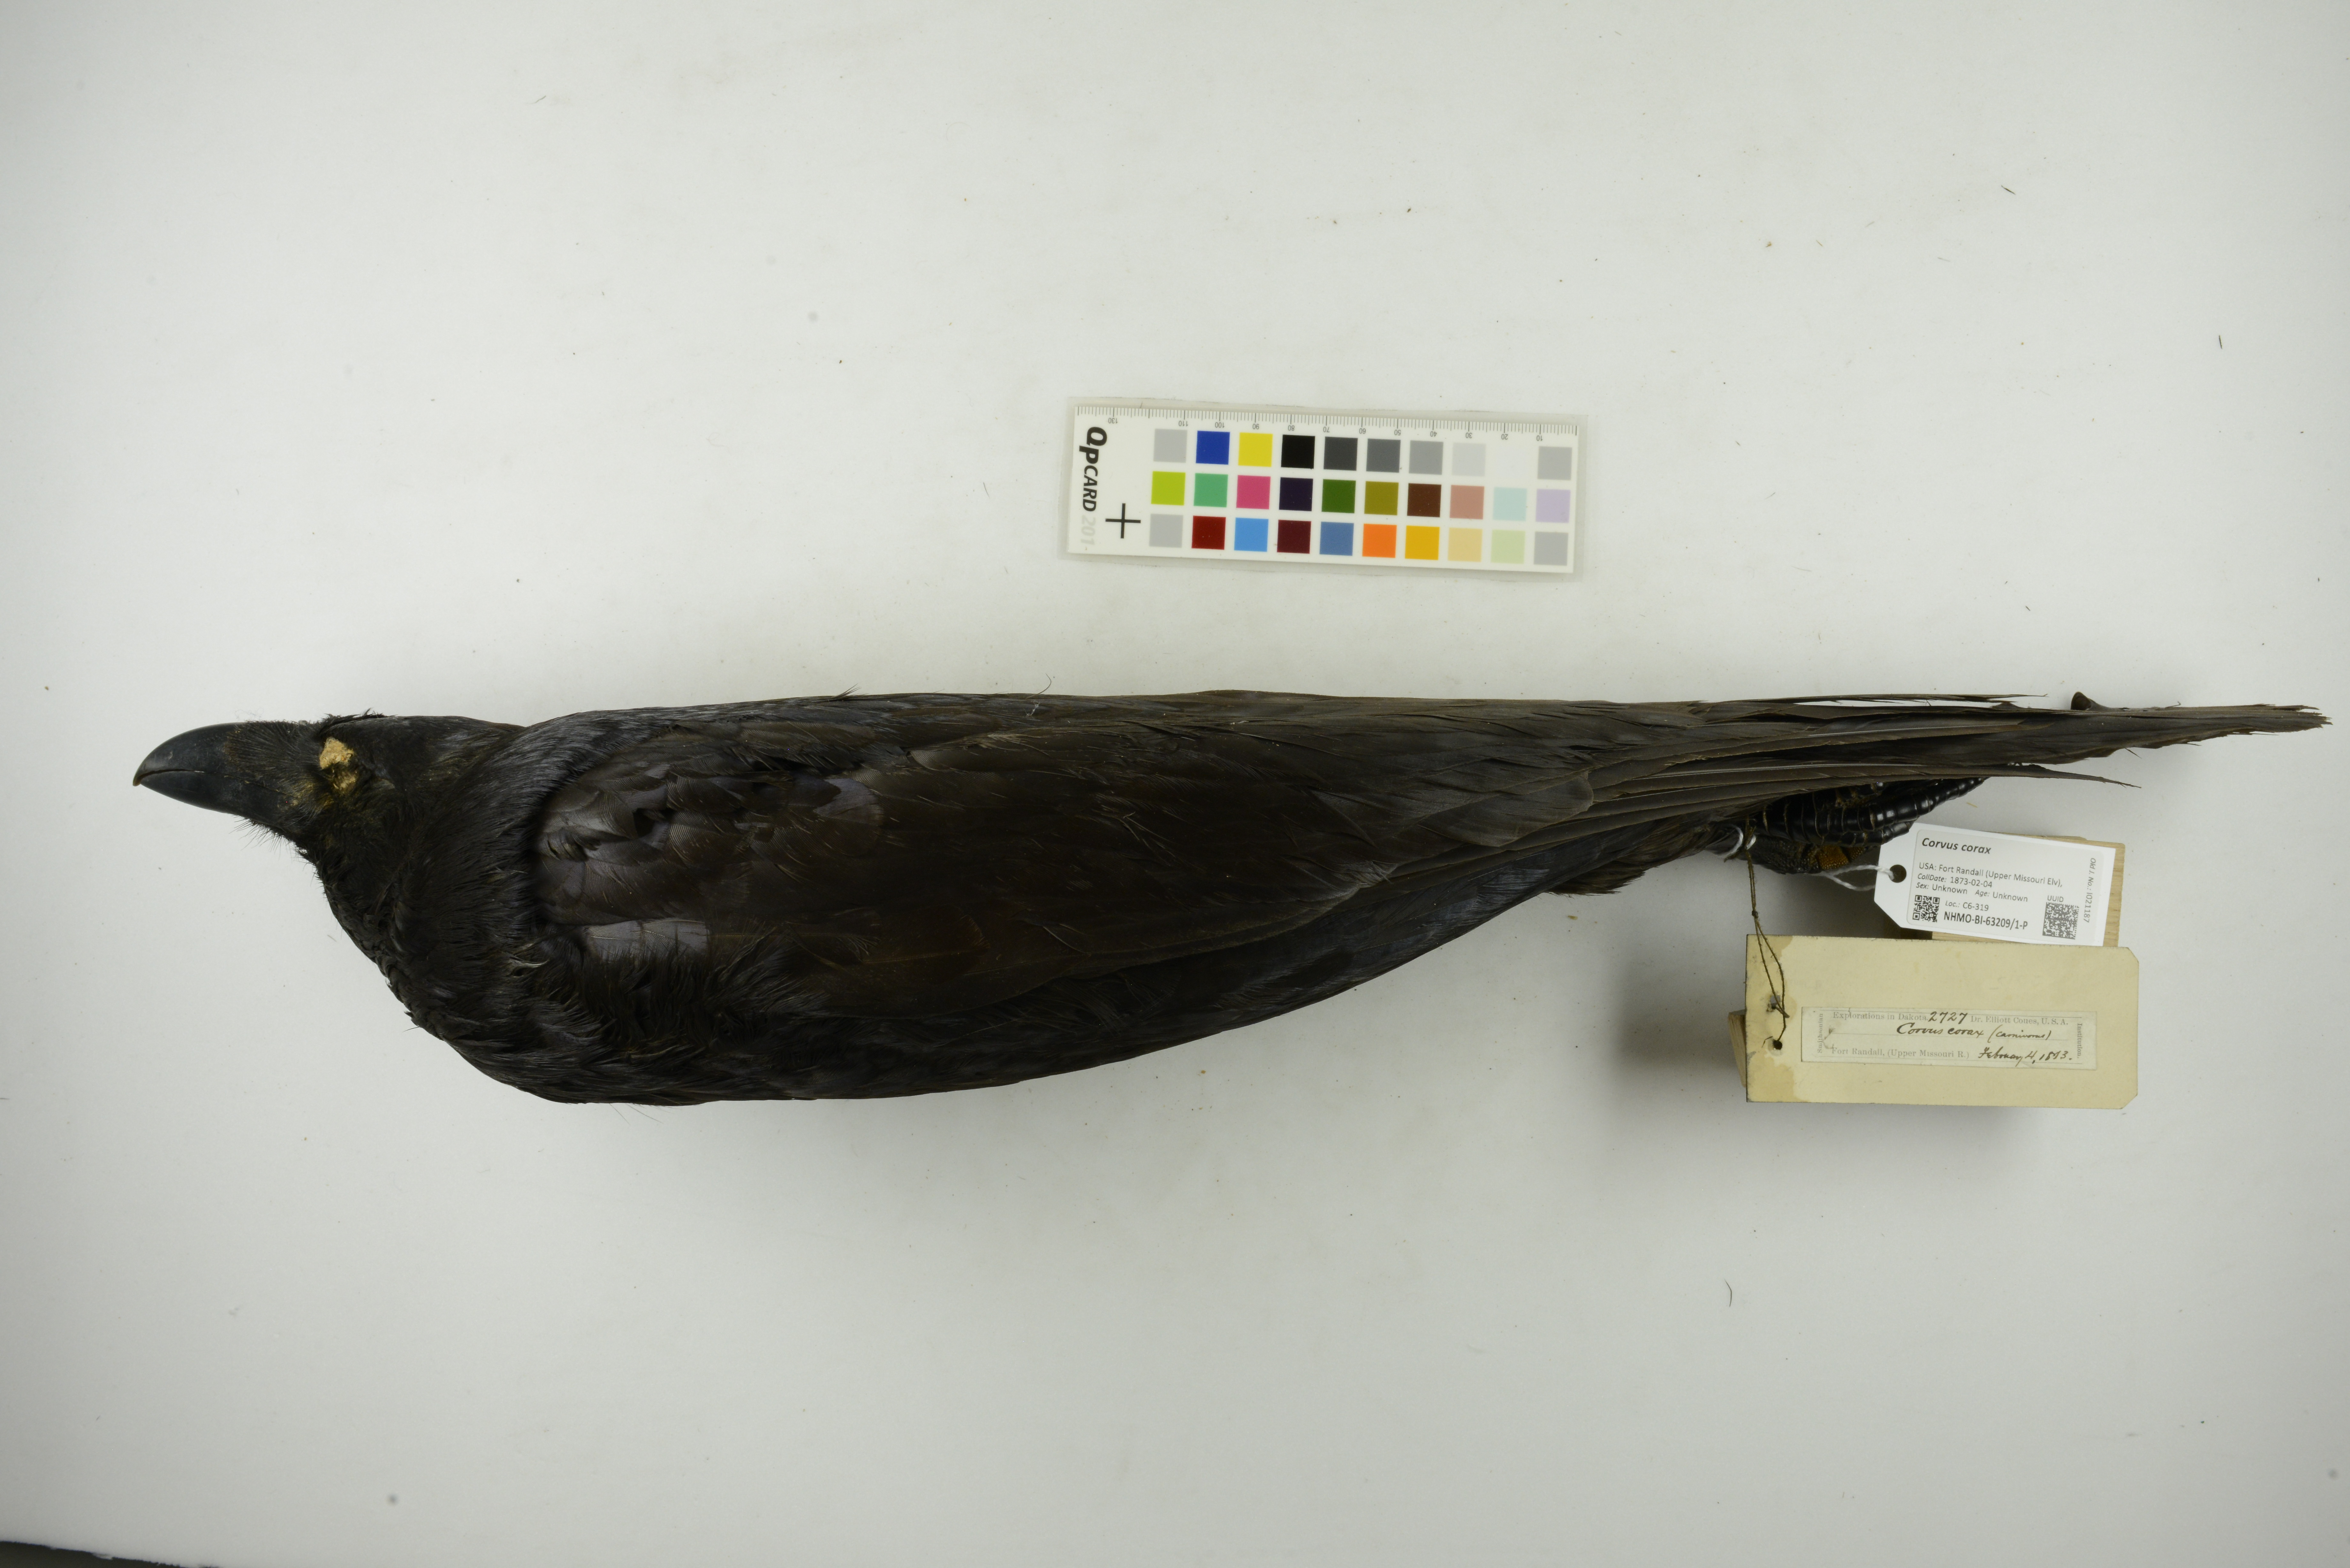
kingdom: Animalia
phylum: Chordata
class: Aves
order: Passeriformes
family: Corvidae
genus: Corvus
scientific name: Corvus corax
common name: Common raven
